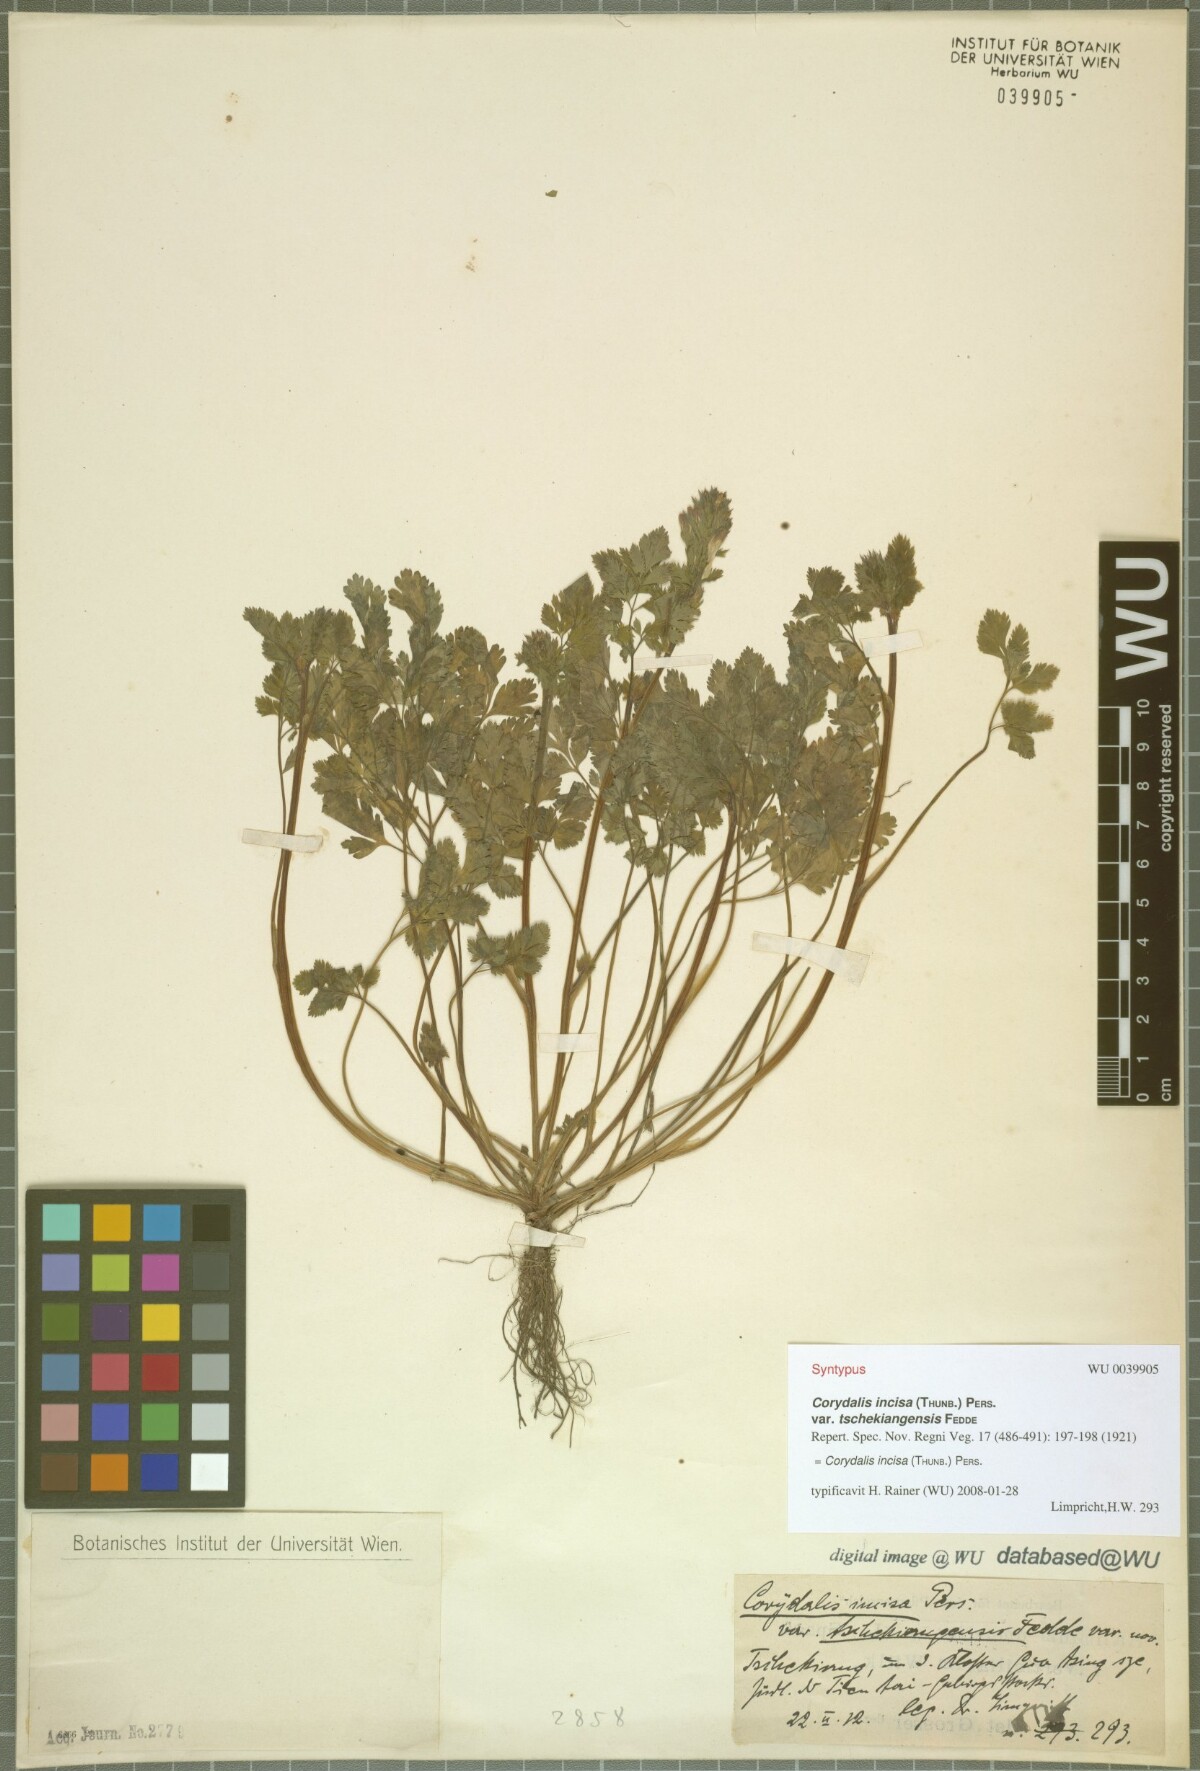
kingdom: Plantae
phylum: Tracheophyta
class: Magnoliopsida
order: Ranunculales
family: Papaveraceae
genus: Corydalis
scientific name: Corydalis incisa
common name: Incised fumewort
